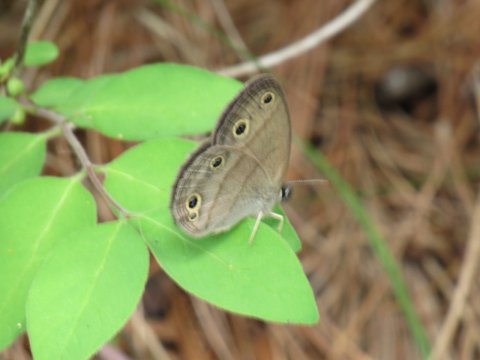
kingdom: Animalia
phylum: Arthropoda
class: Insecta
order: Lepidoptera
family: Nymphalidae
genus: Euptychia
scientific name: Euptychia cymela
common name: Little Wood Satyr
